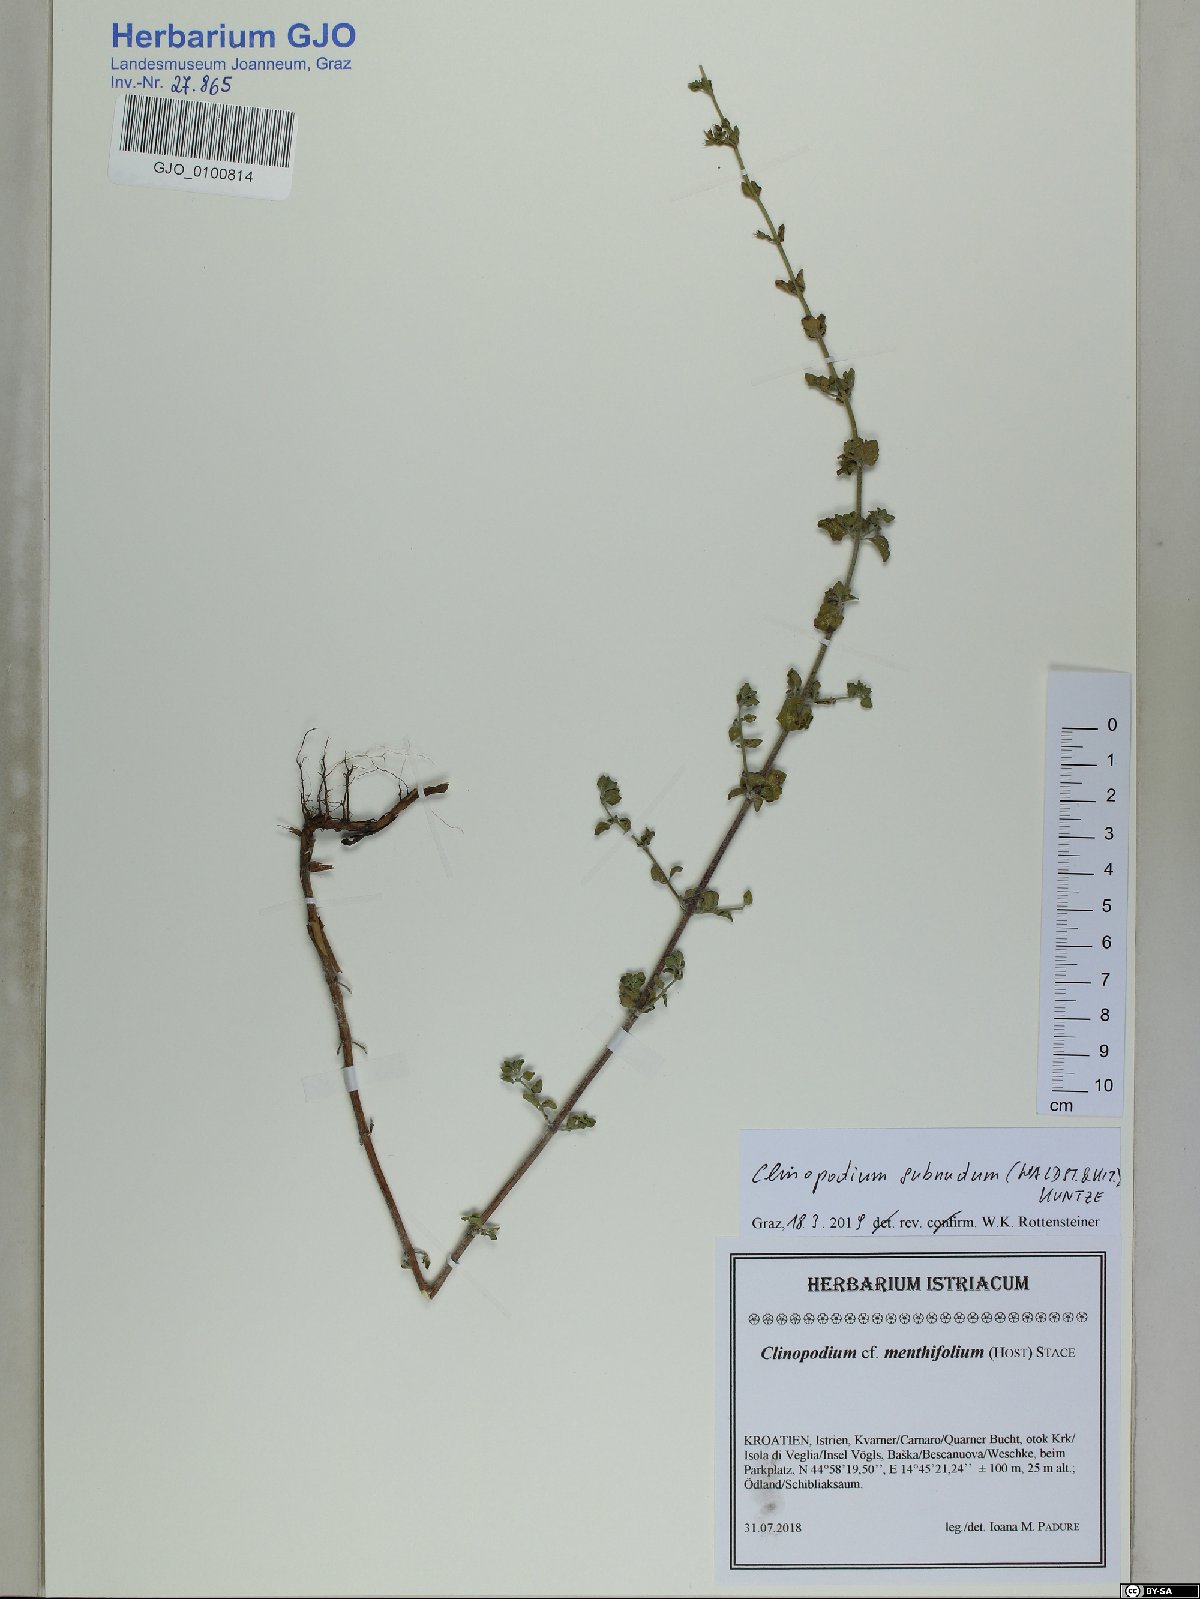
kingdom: Plantae
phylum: Tracheophyta
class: Magnoliopsida
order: Lamiales
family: Lamiaceae
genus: Clinopodium
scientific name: Clinopodium nepeta
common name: Lesser calamint
